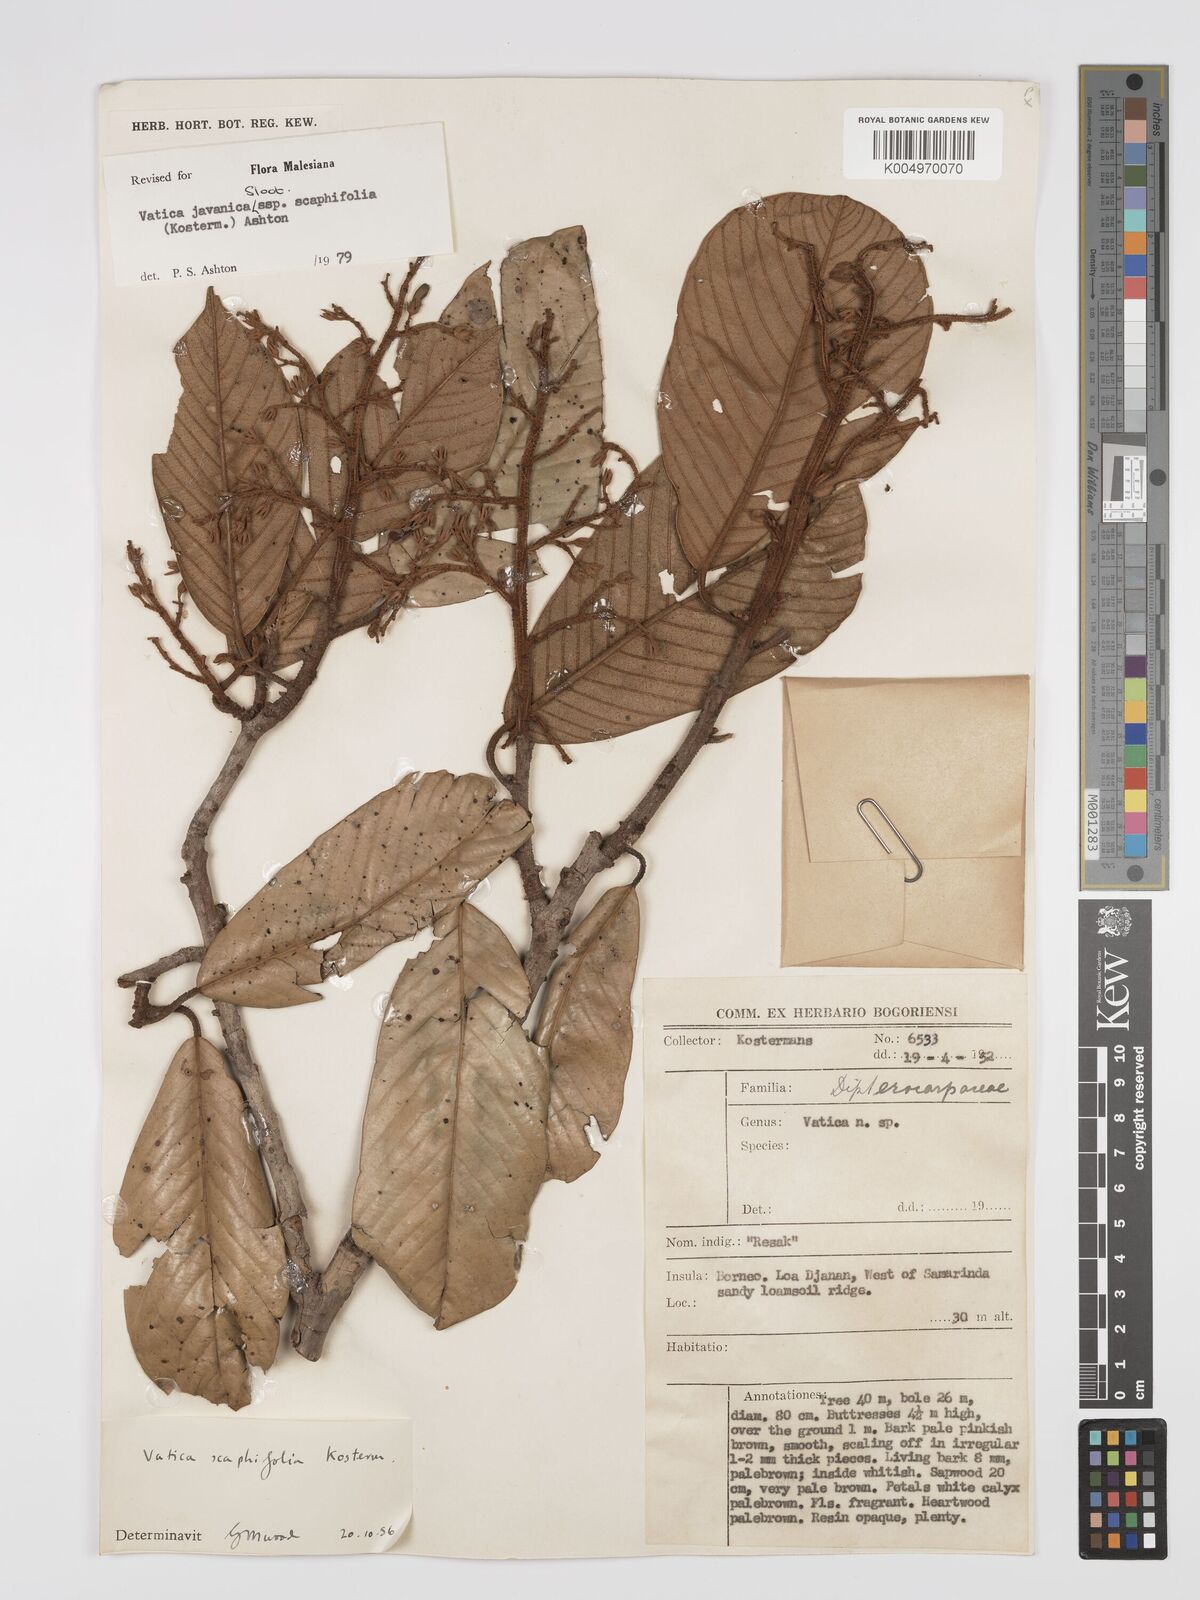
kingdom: Plantae
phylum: Tracheophyta
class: Magnoliopsida
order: Malvales
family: Dipterocarpaceae
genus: Vatica
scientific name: Vatica javanica
